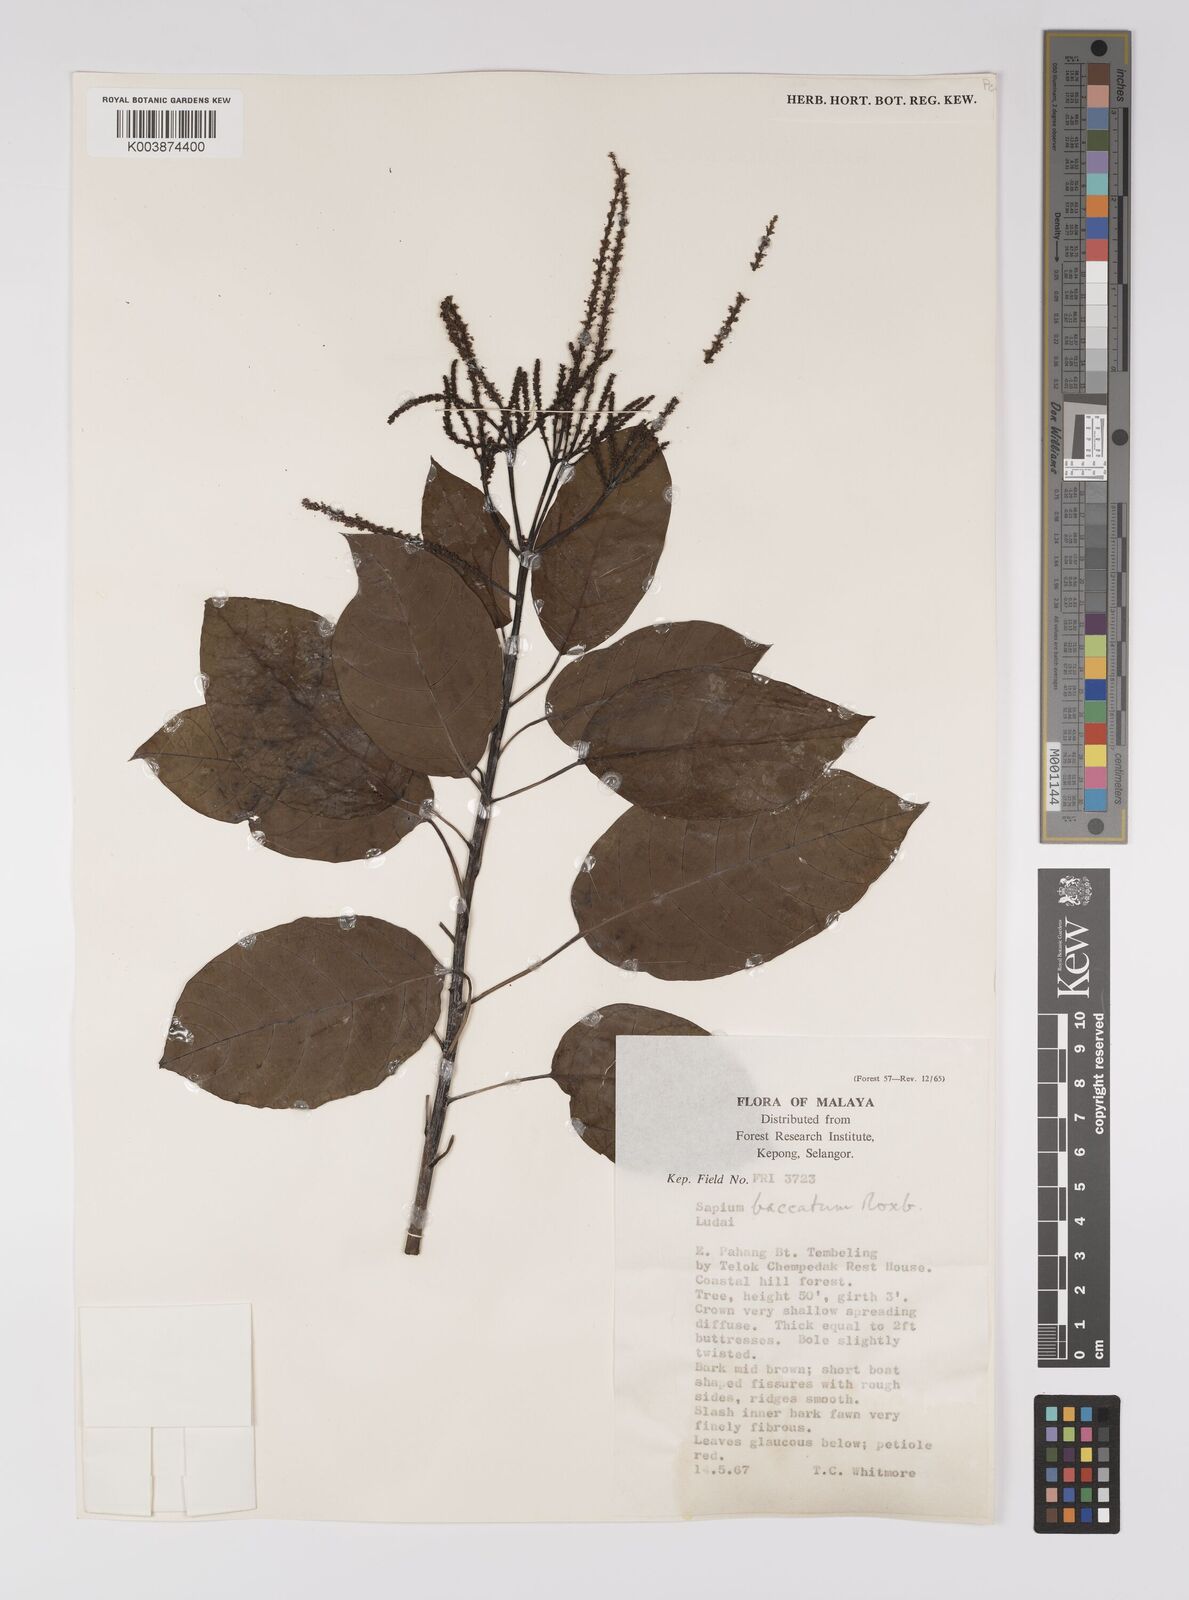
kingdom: Plantae
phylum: Tracheophyta
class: Magnoliopsida
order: Malpighiales
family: Euphorbiaceae
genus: Balakata
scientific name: Balakata baccata
